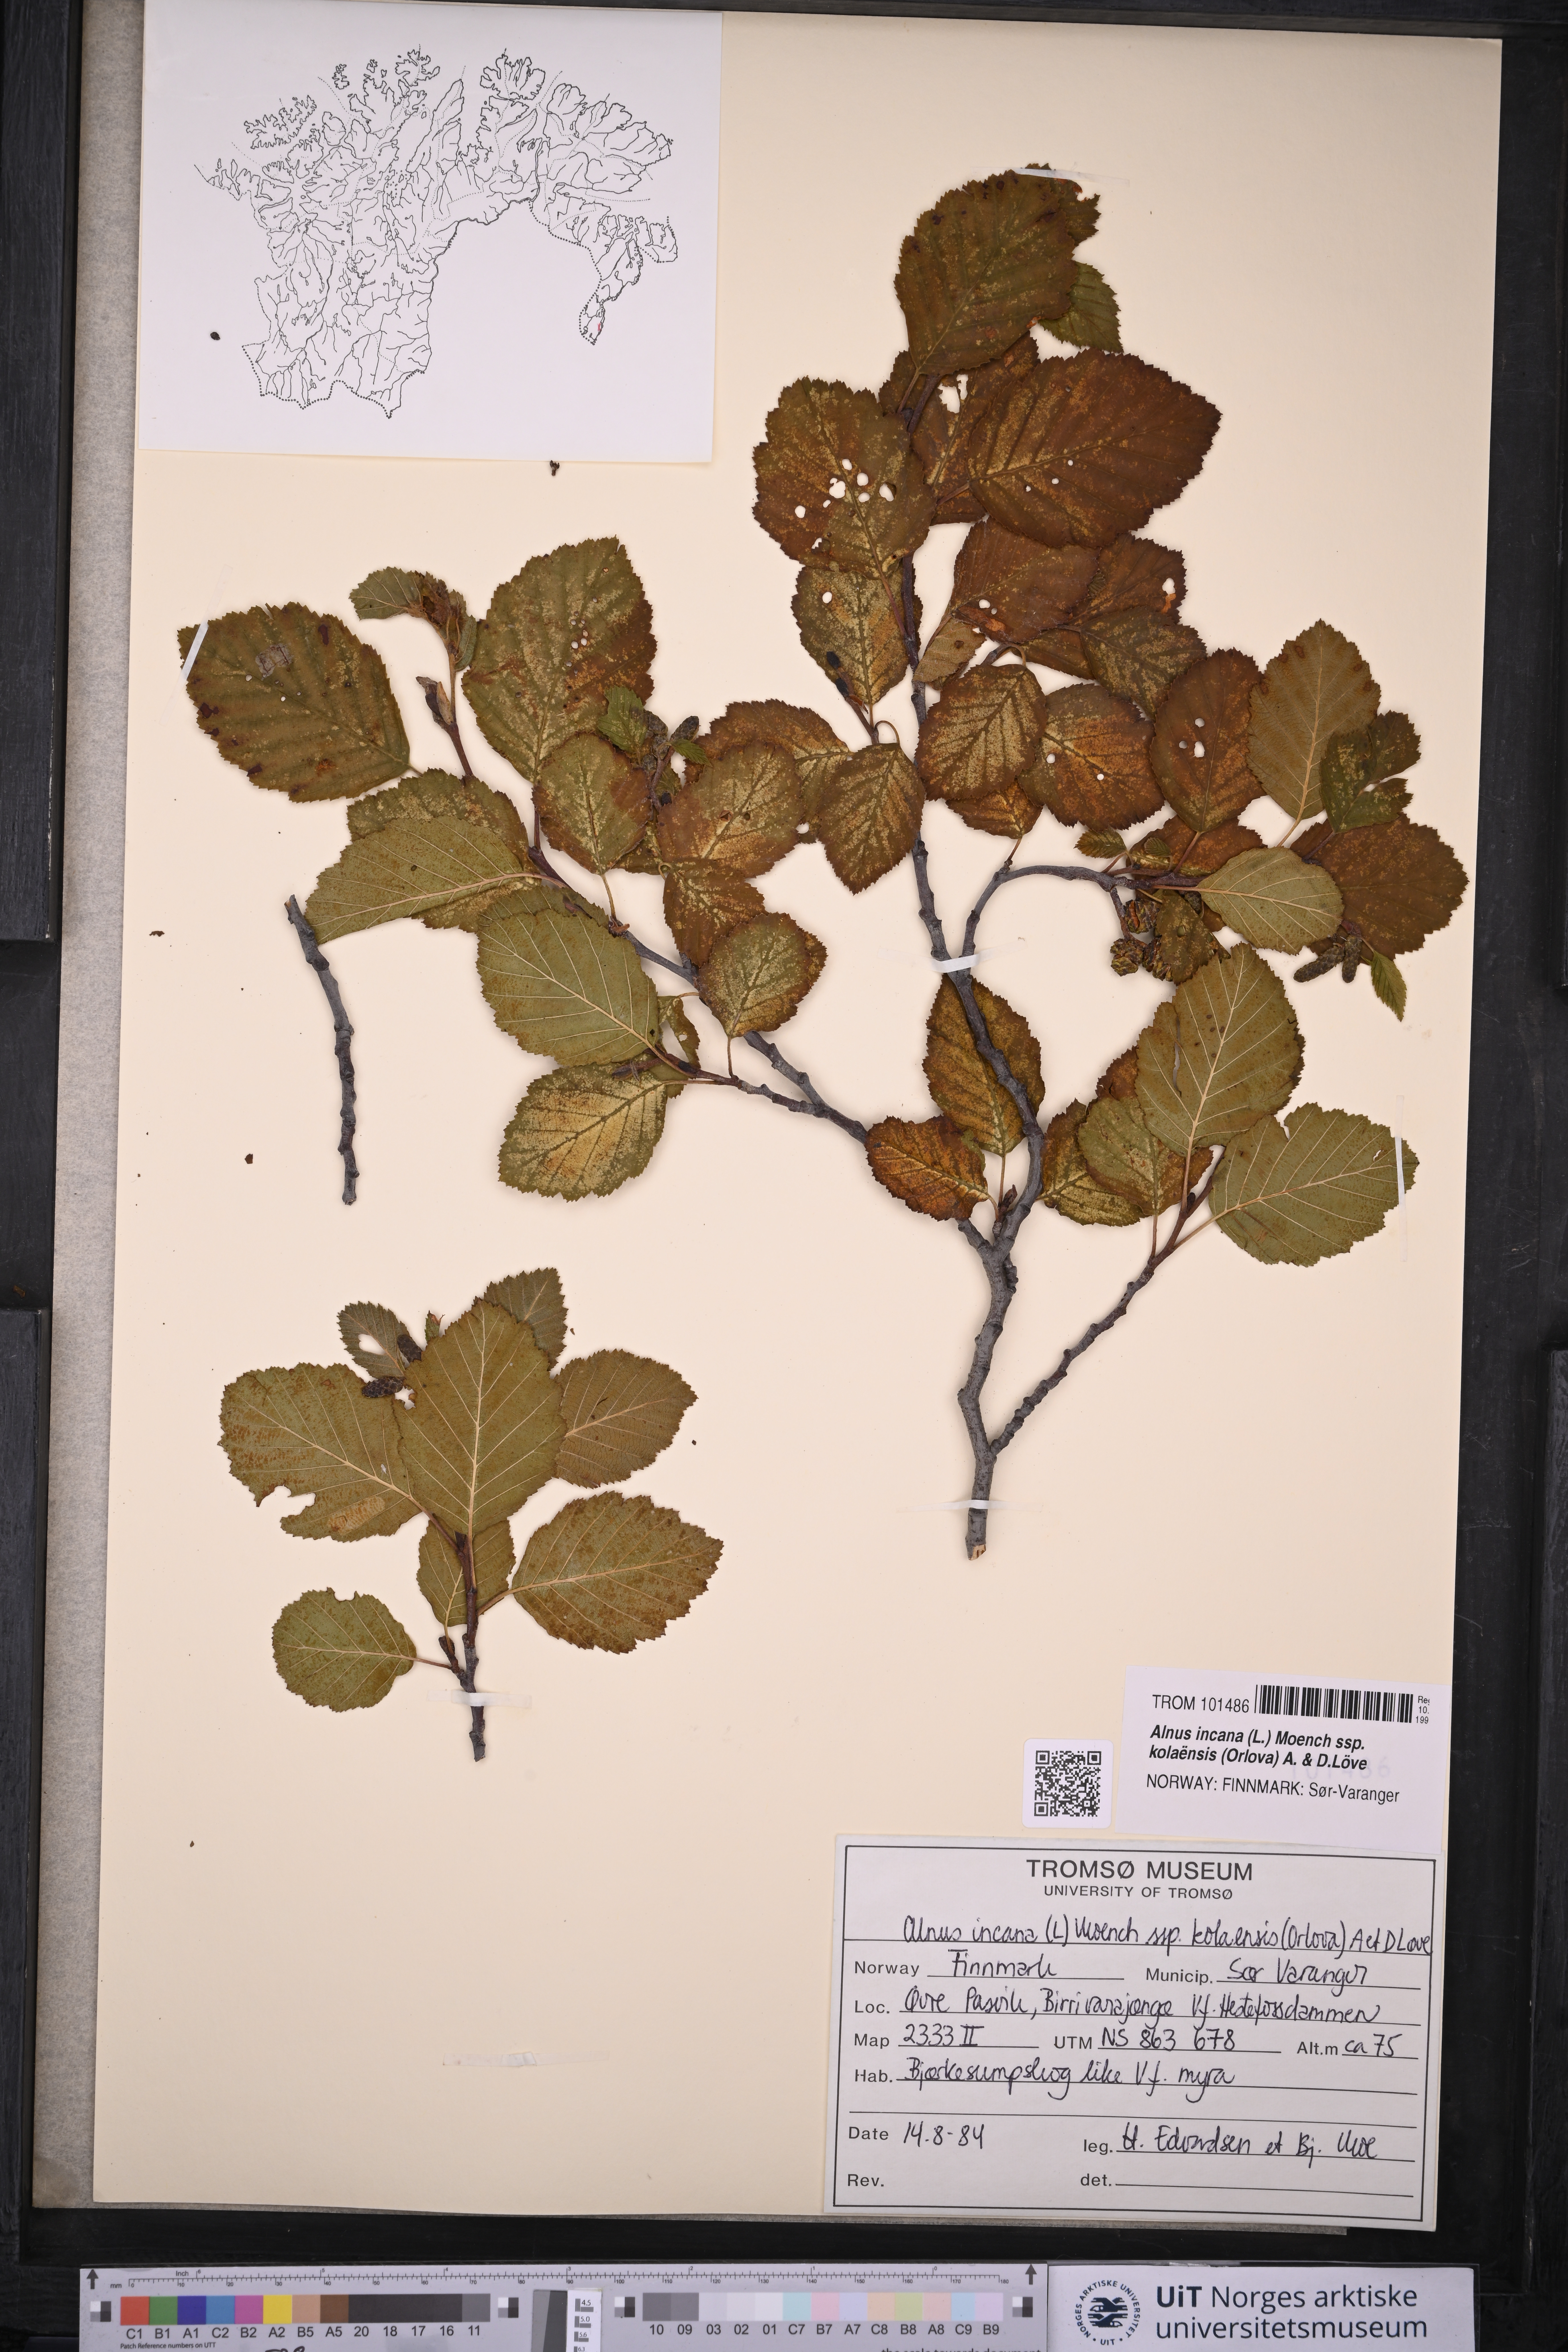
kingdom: Plantae
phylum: Tracheophyta
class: Magnoliopsida
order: Fagales
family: Betulaceae
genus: Alnus
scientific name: Alnus incana
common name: Grey alder
